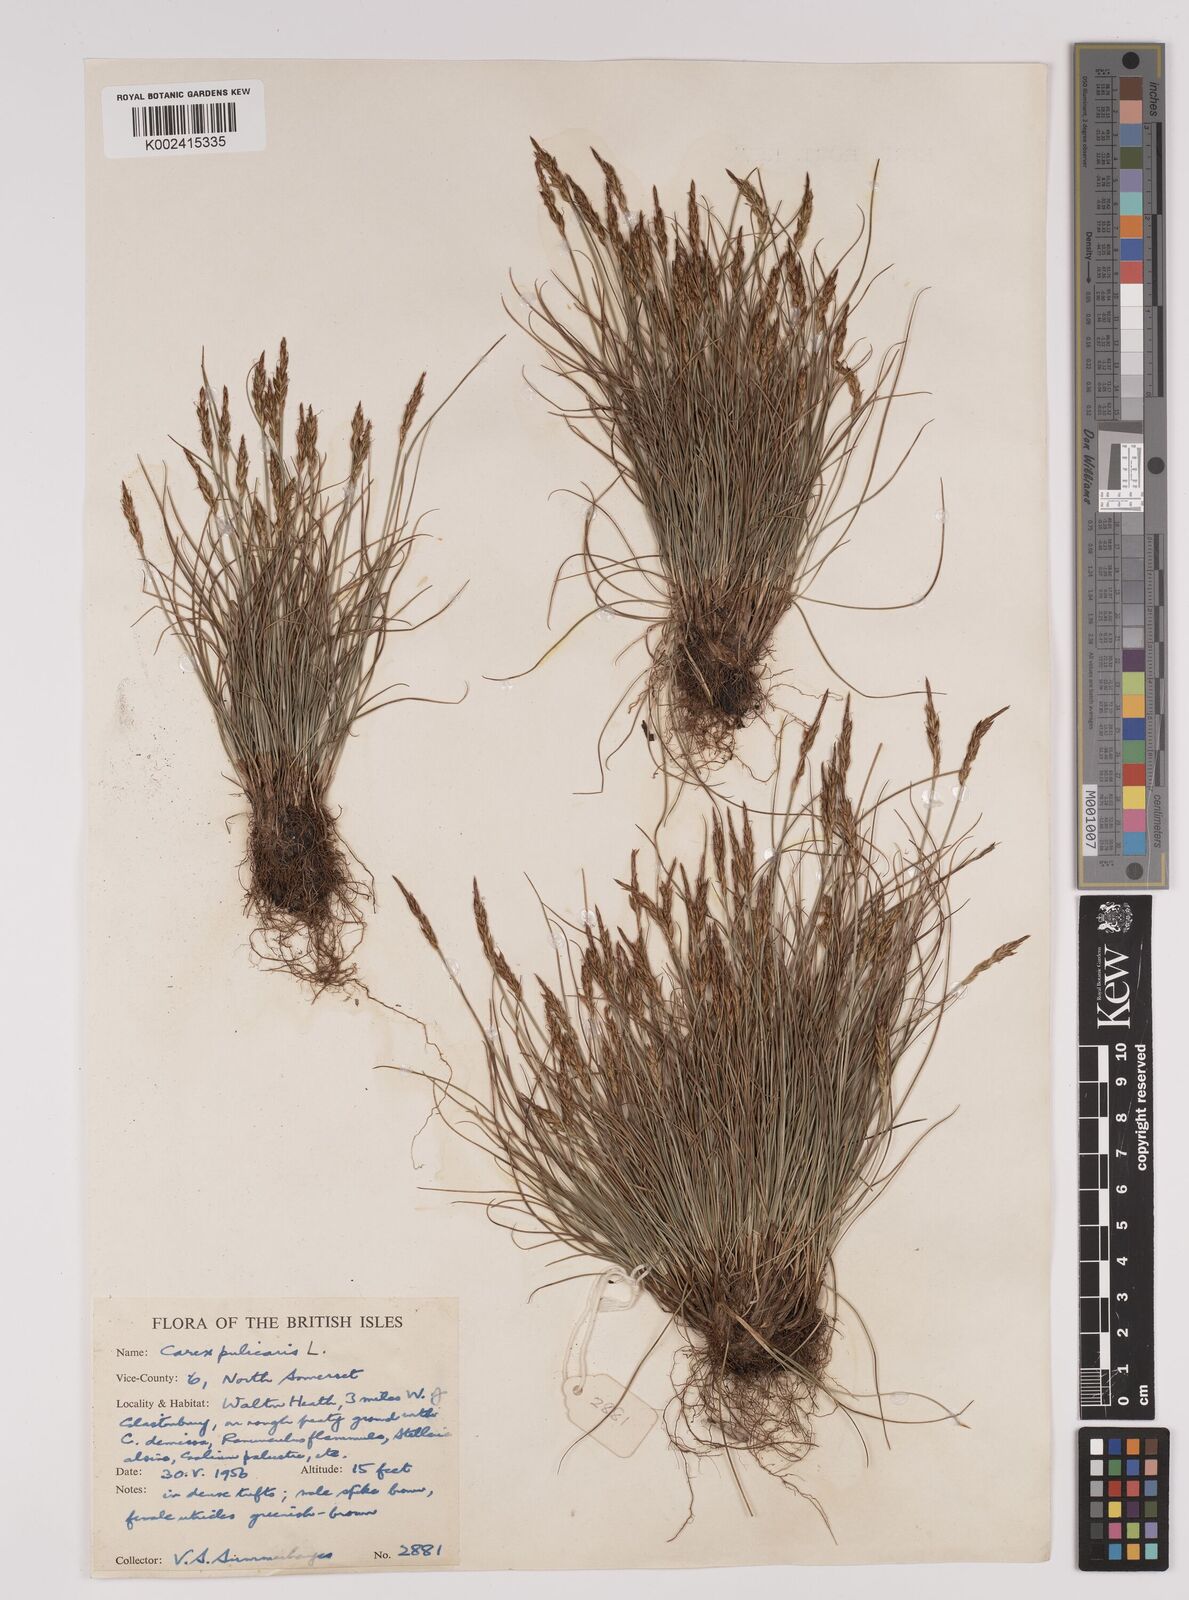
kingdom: Plantae
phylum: Tracheophyta
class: Liliopsida
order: Poales
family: Cyperaceae
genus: Carex
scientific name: Carex pulicaris
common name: Flea sedge
